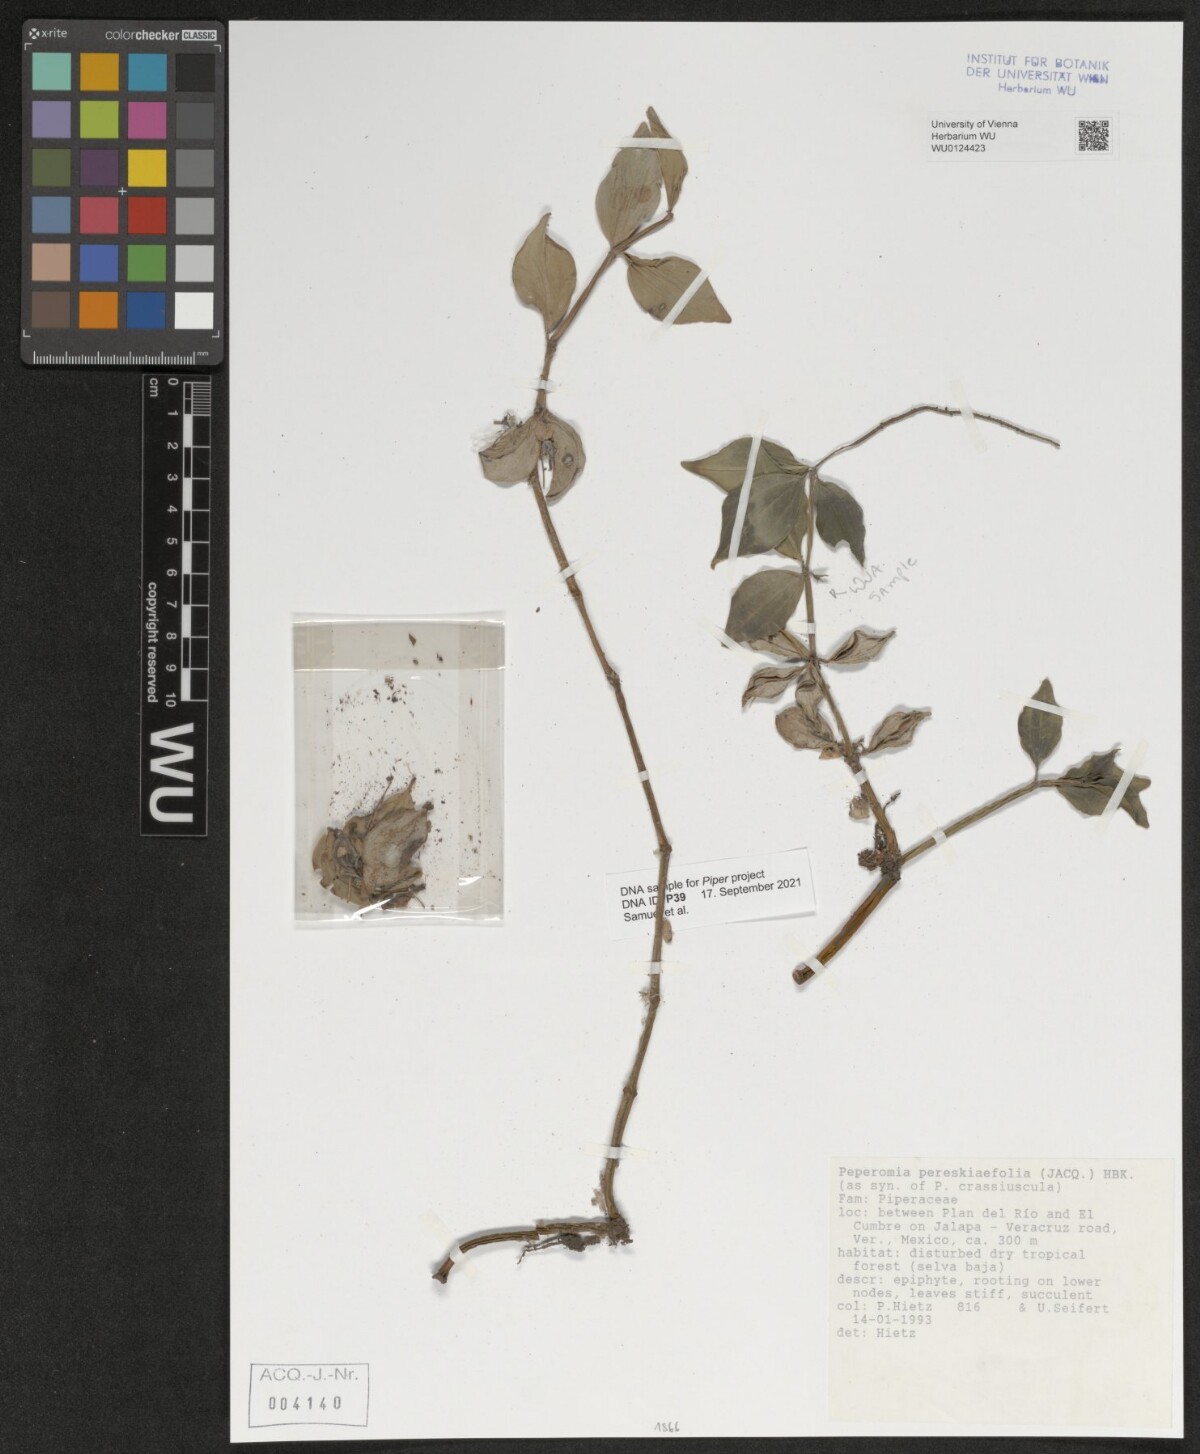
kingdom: Plantae
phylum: Tracheophyta
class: Magnoliopsida
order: Piperales
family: Piperaceae
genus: Peperomia
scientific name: Peperomia pereskiifolia
